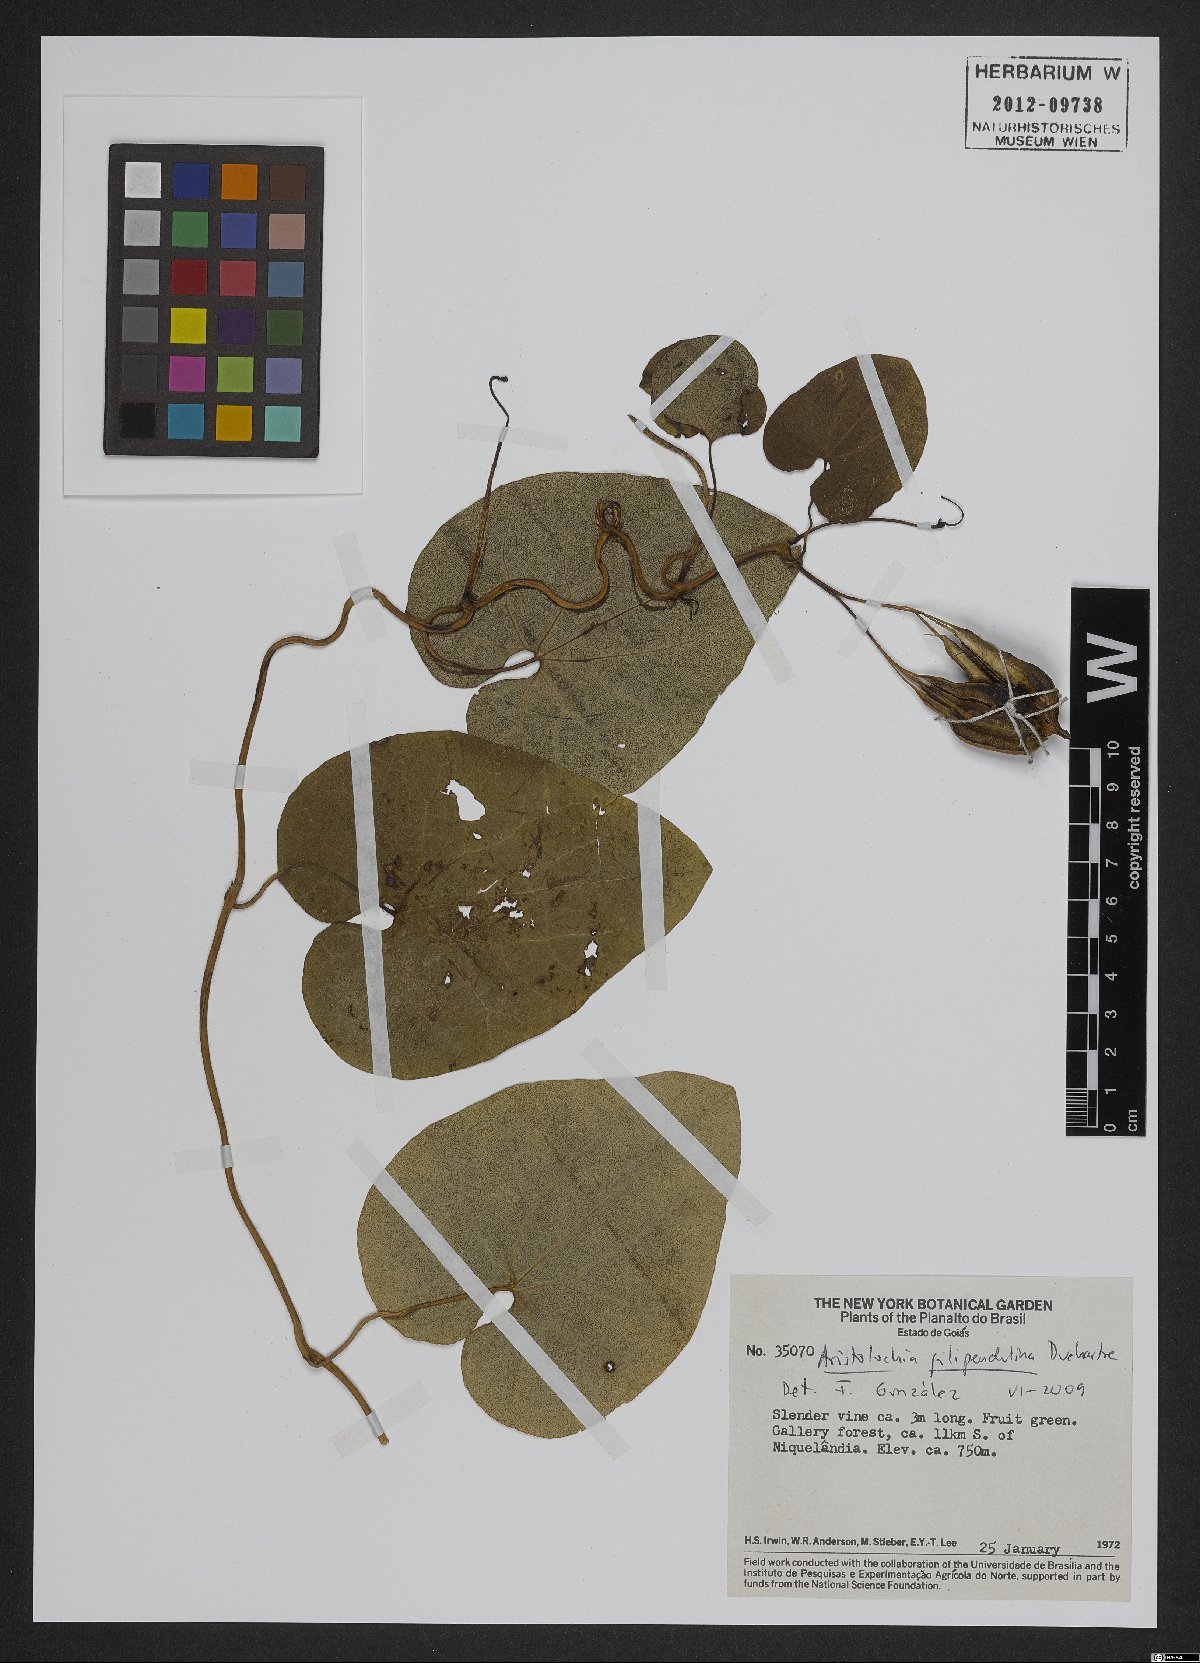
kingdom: Plantae
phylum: Tracheophyta
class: Magnoliopsida
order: Piperales
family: Aristolochiaceae
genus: Aristolochia
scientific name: Aristolochia filipendulina
